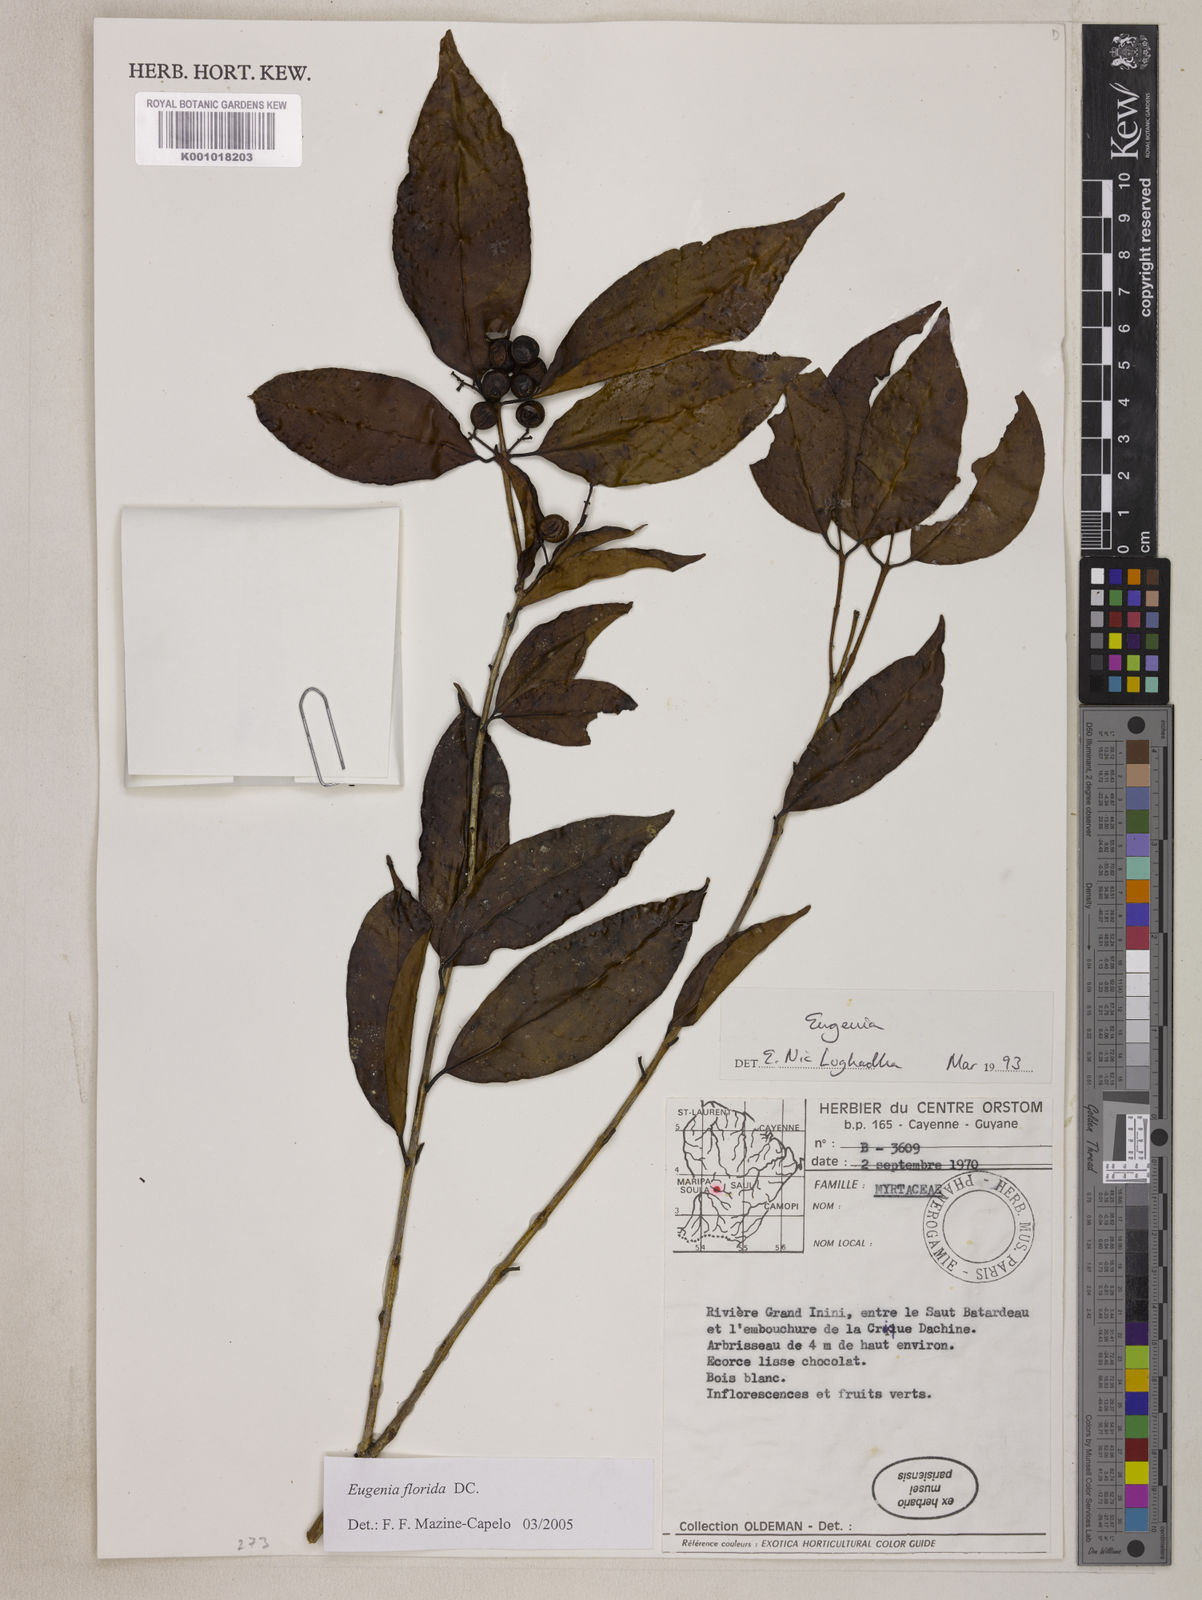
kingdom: Plantae
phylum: Tracheophyta
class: Magnoliopsida
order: Myrtales
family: Myrtaceae
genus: Eugenia
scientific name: Eugenia florida
